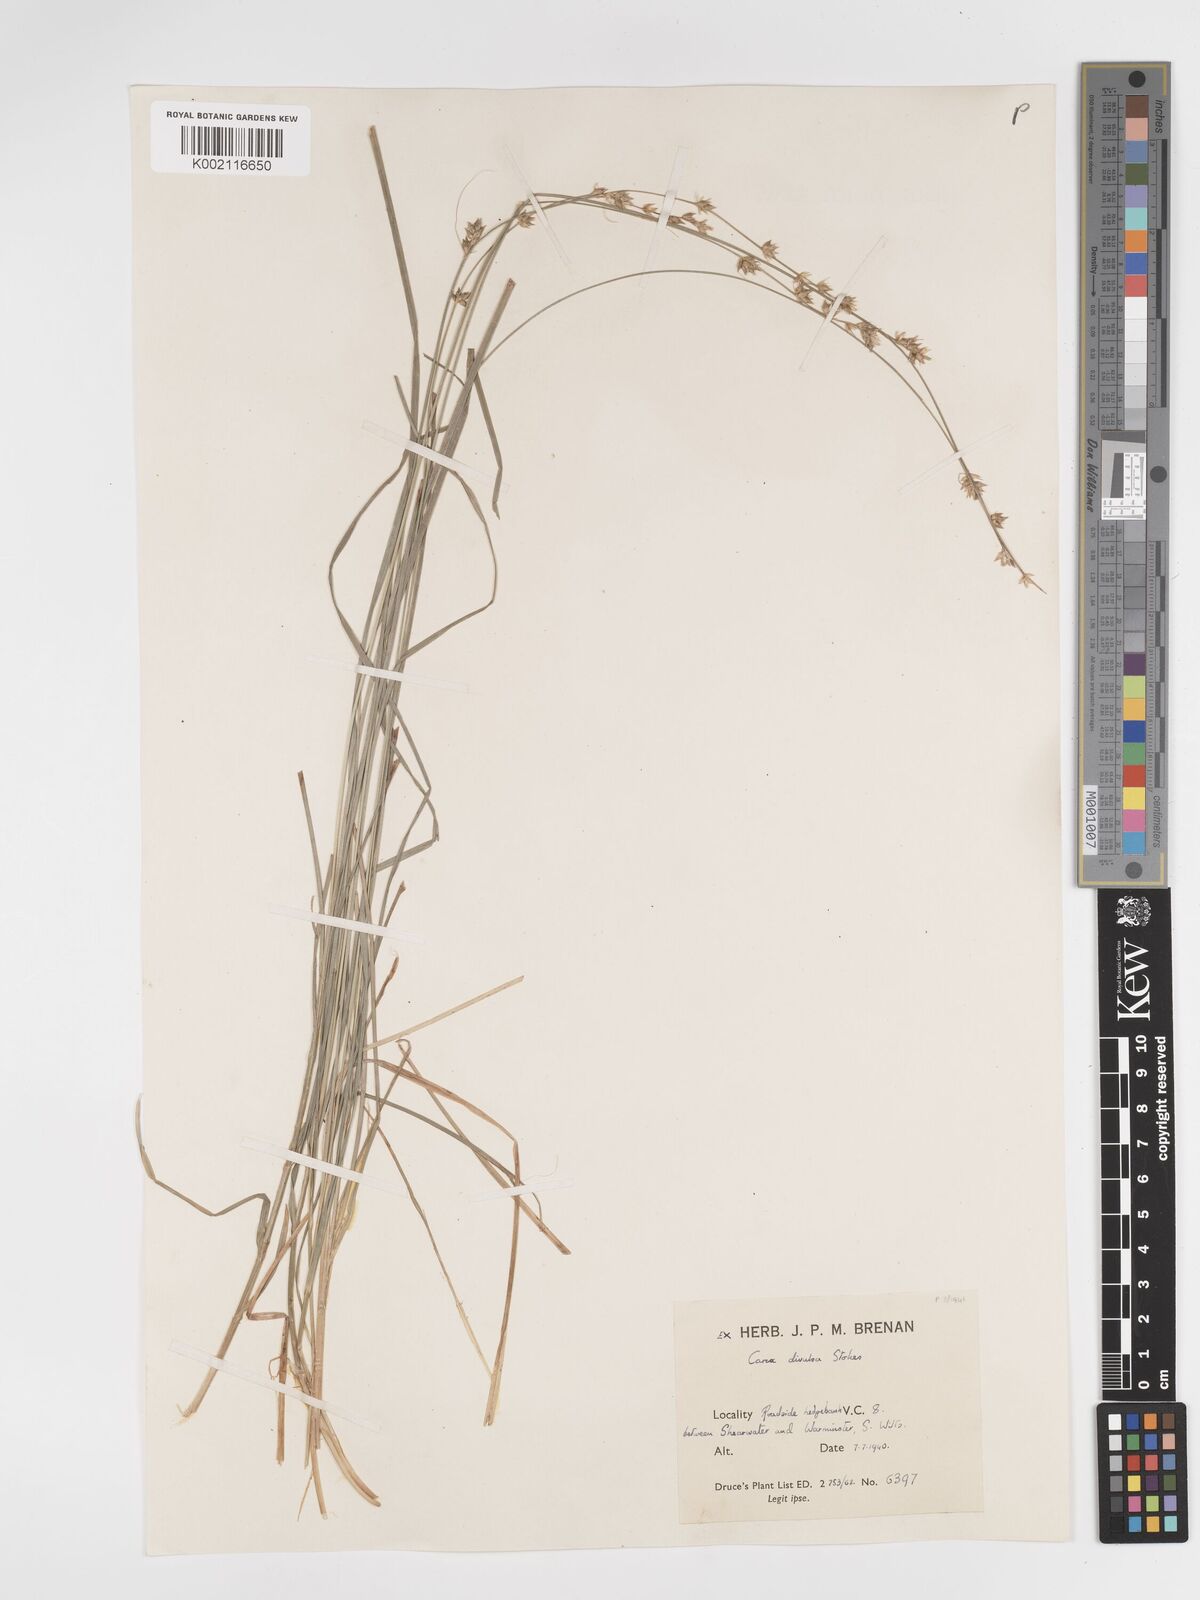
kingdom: Plantae
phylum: Tracheophyta
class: Liliopsida
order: Poales
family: Cyperaceae
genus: Carex
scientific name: Carex divulsa
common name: Grassland sedge
